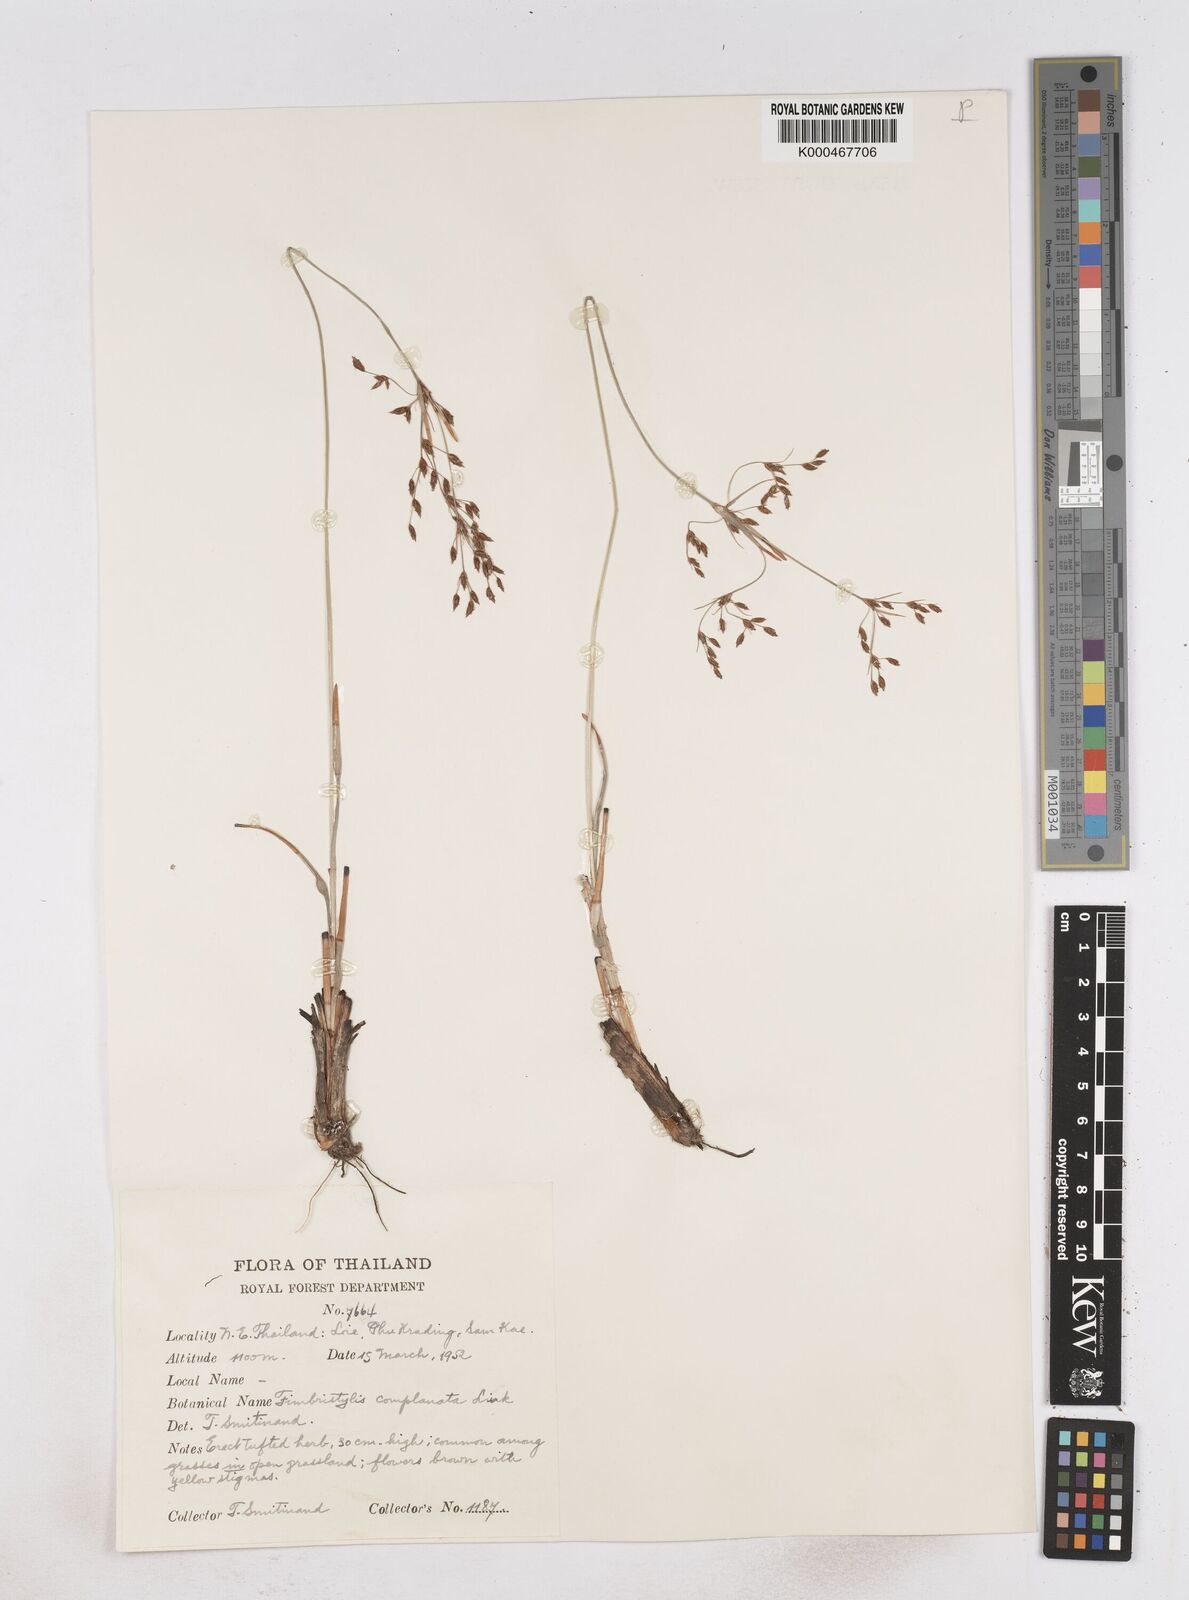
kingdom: Plantae
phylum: Tracheophyta
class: Liliopsida
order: Poales
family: Cyperaceae
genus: Fimbristylis
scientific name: Fimbristylis thomsonii
